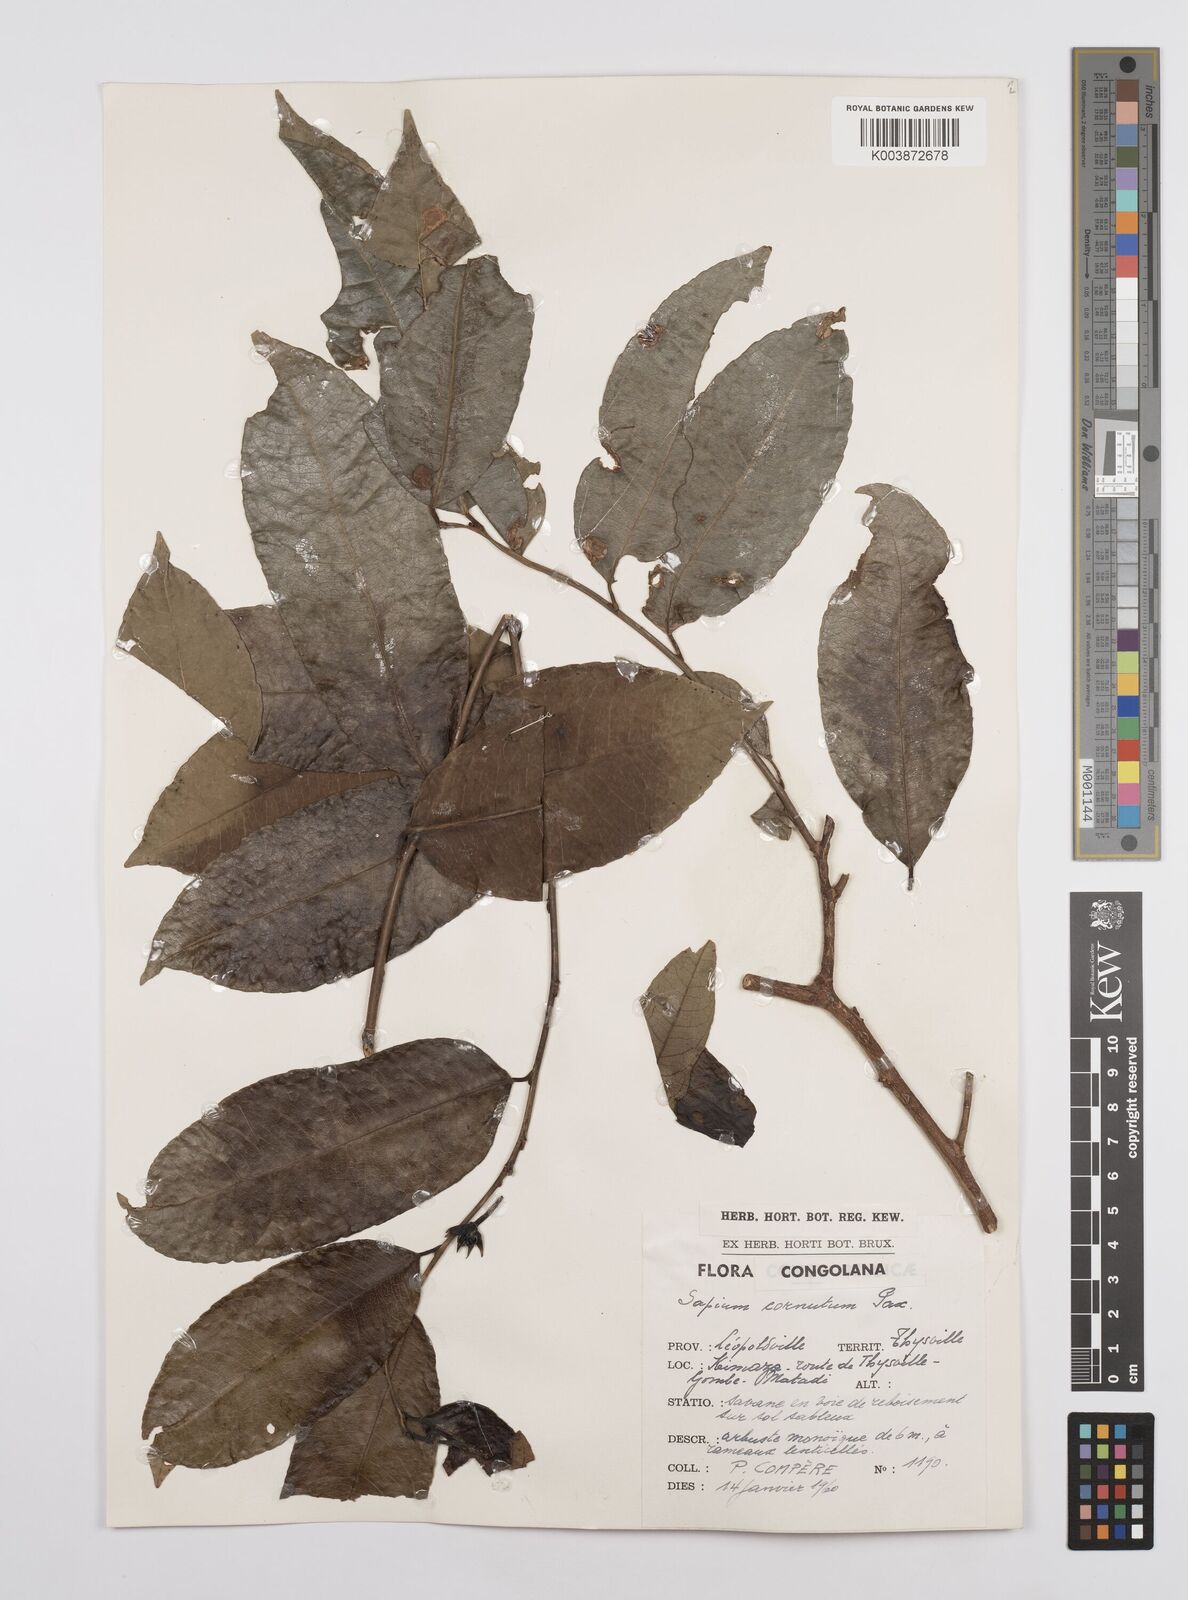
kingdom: Plantae
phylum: Tracheophyta
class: Magnoliopsida
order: Malpighiales
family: Euphorbiaceae
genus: Sclerocroton
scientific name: Sclerocroton cornutus
